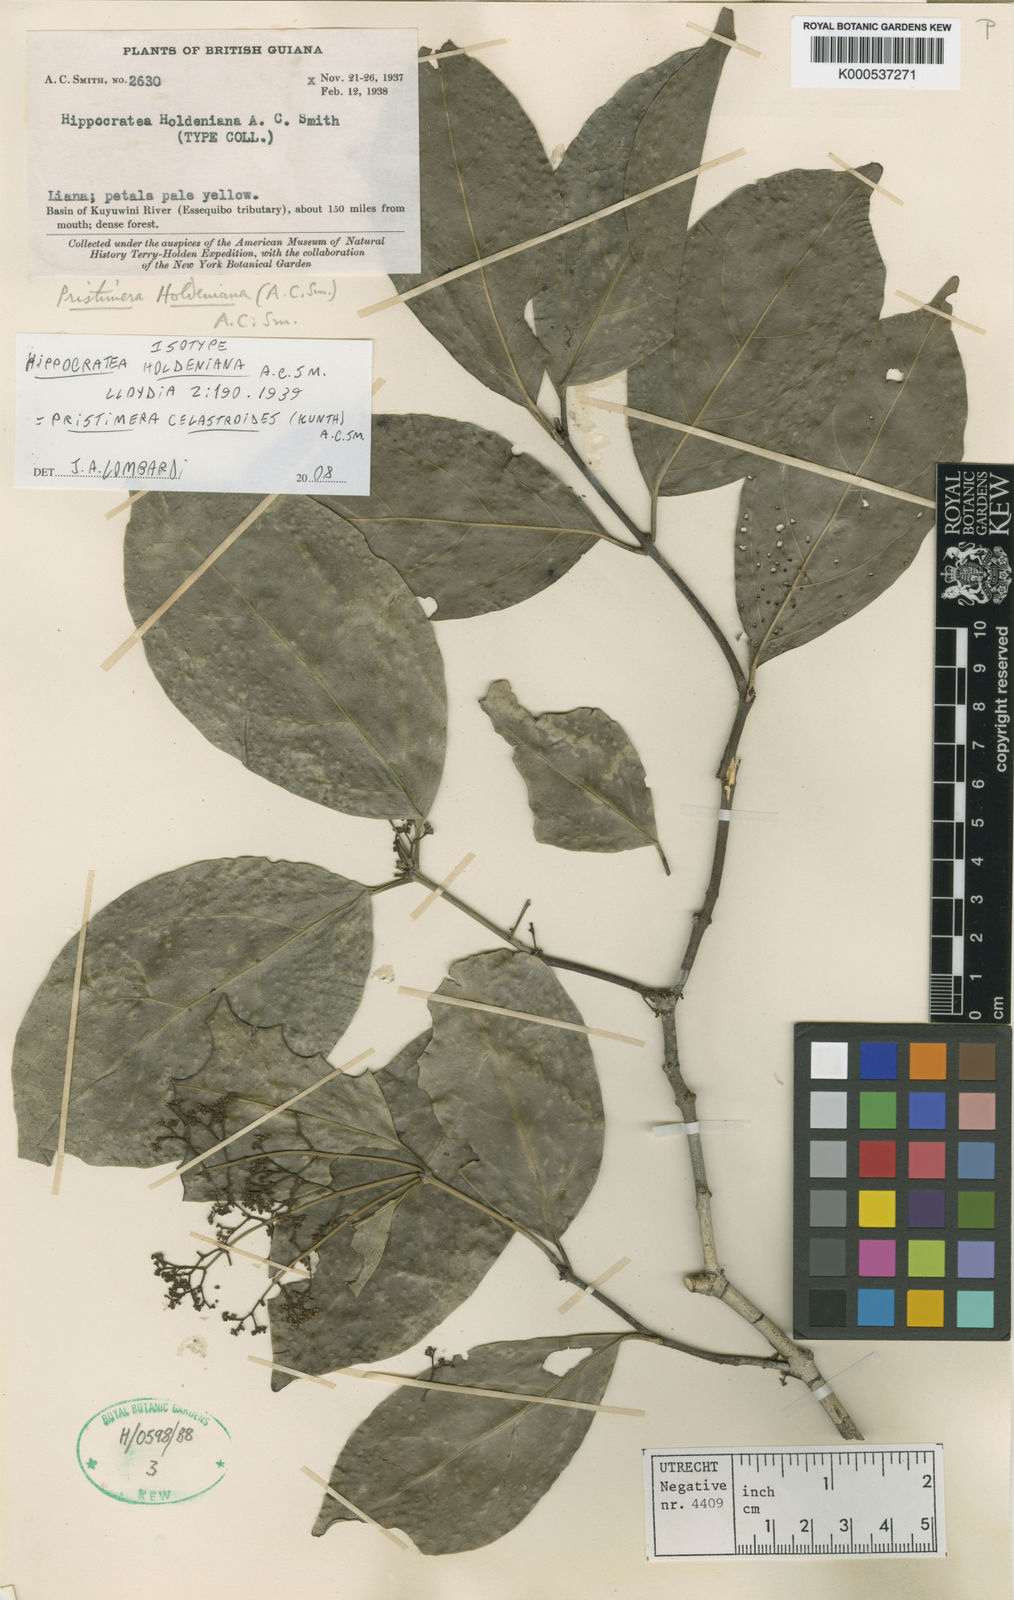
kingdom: Plantae
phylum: Tracheophyta
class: Magnoliopsida
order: Celastrales
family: Celastraceae
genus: Pristimera
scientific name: Pristimera celastroides
